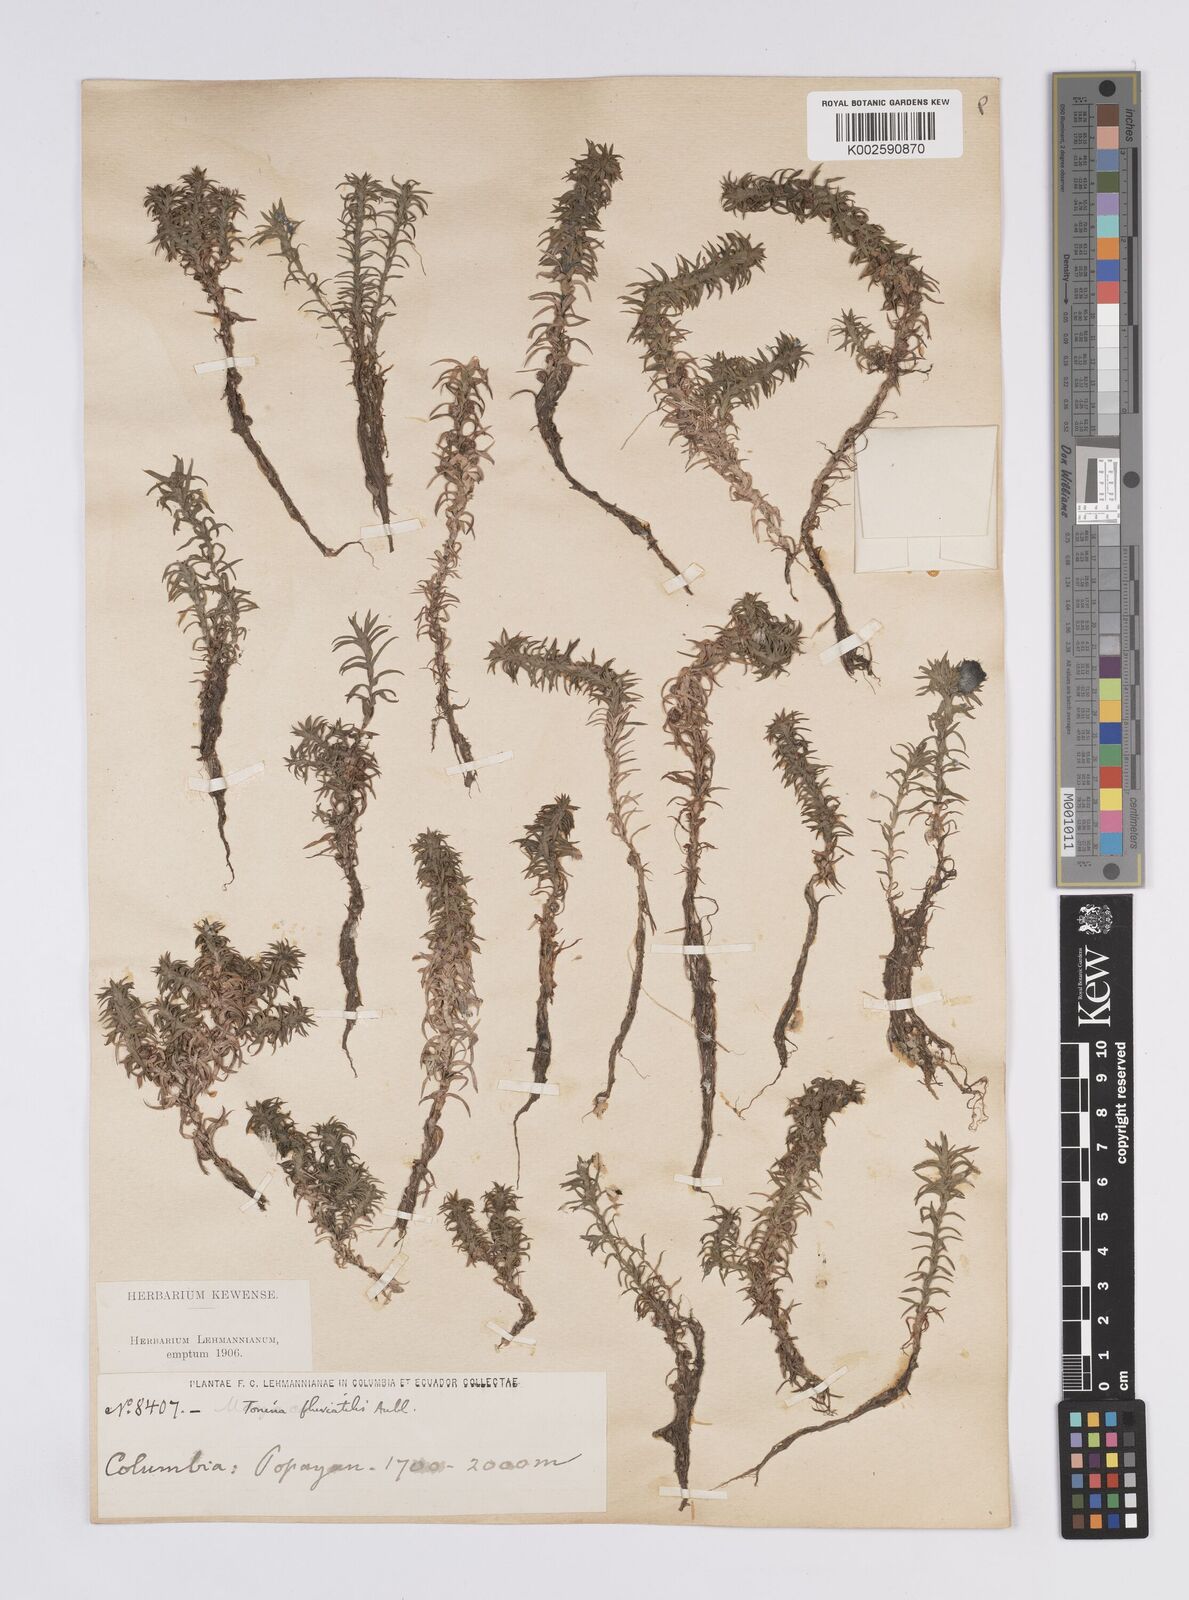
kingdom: Plantae
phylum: Tracheophyta
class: Liliopsida
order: Poales
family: Eriocaulaceae
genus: Paepalanthus
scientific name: Paepalanthus fluviatilis
